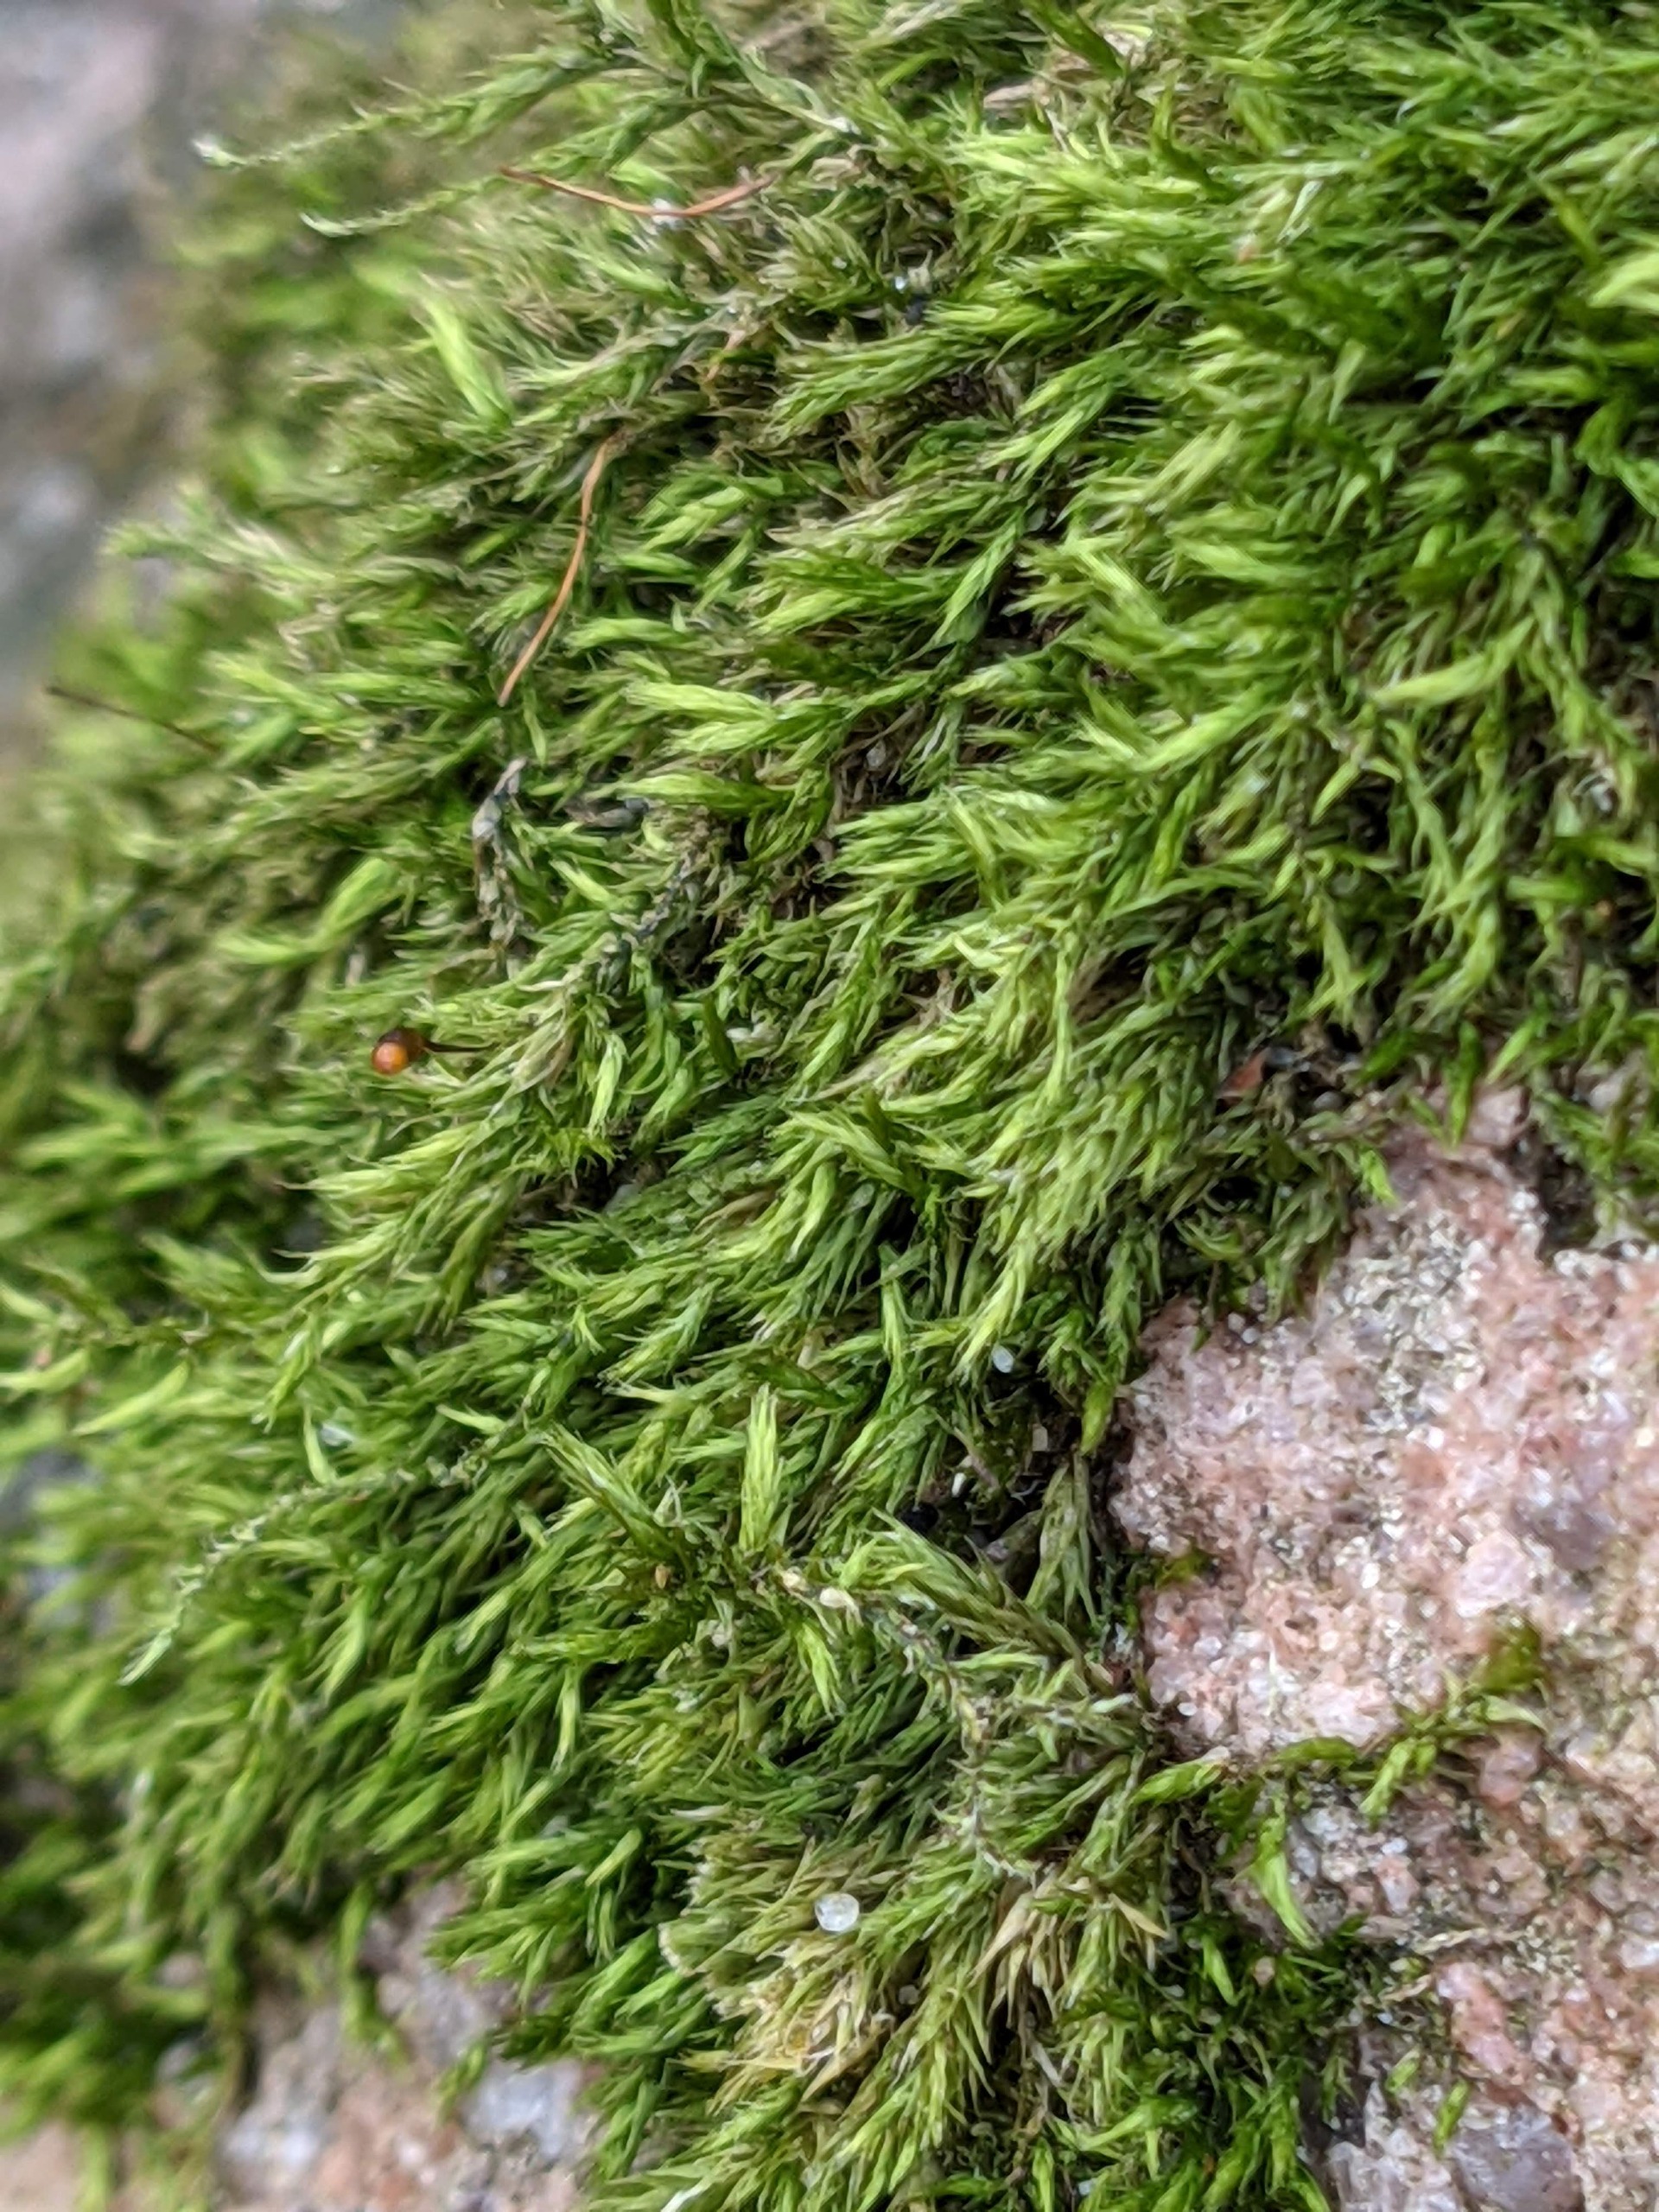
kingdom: Plantae
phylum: Bryophyta
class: Bryopsida
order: Hypnales
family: Brachytheciaceae
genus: Sciuro-hypnum
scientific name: Sciuro-hypnum populeum
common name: Park-kortkapsel
